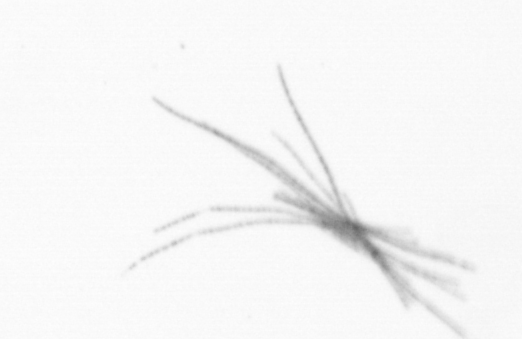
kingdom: Bacteria
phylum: Cyanobacteria
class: Cyanobacteriia
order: Cyanobacteriales
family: Microcoleaceae
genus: Trichodesmium
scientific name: Trichodesmium
